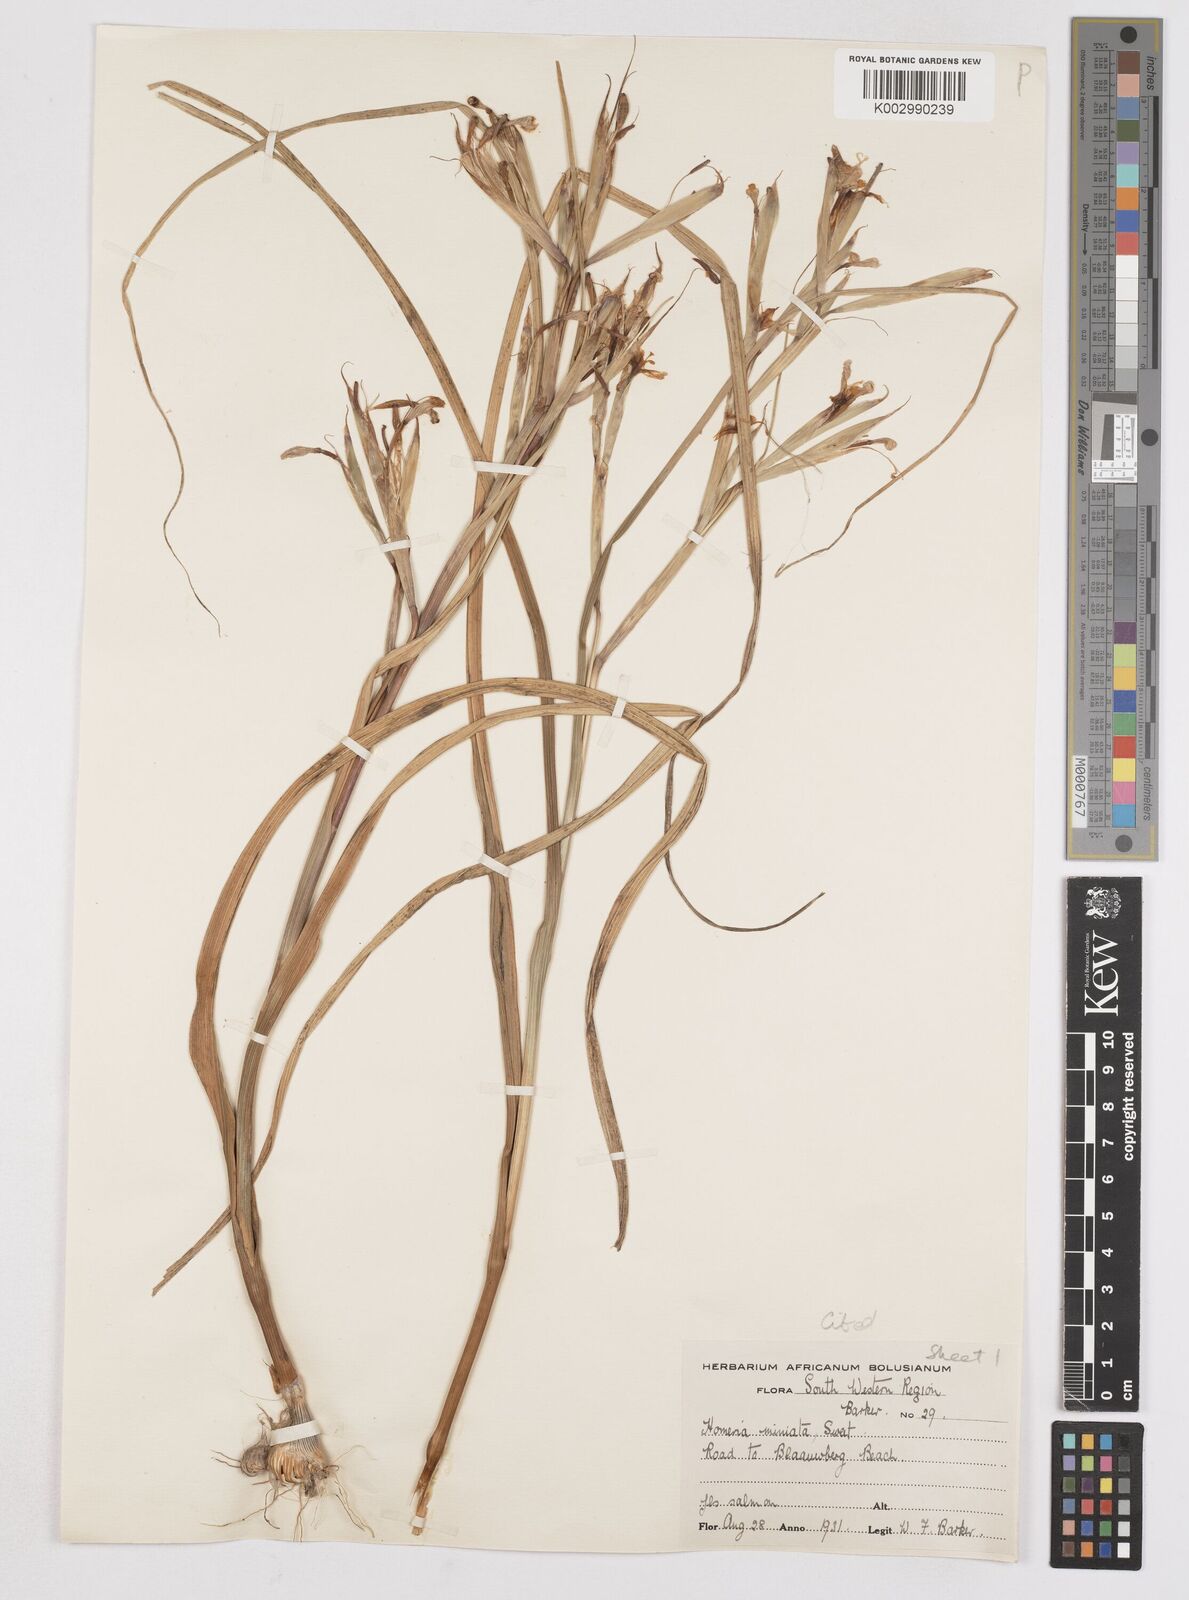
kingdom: Plantae
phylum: Tracheophyta
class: Liliopsida
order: Asparagales
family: Iridaceae
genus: Moraea
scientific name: Moraea miniata
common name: Two-leaf cape-tulip
